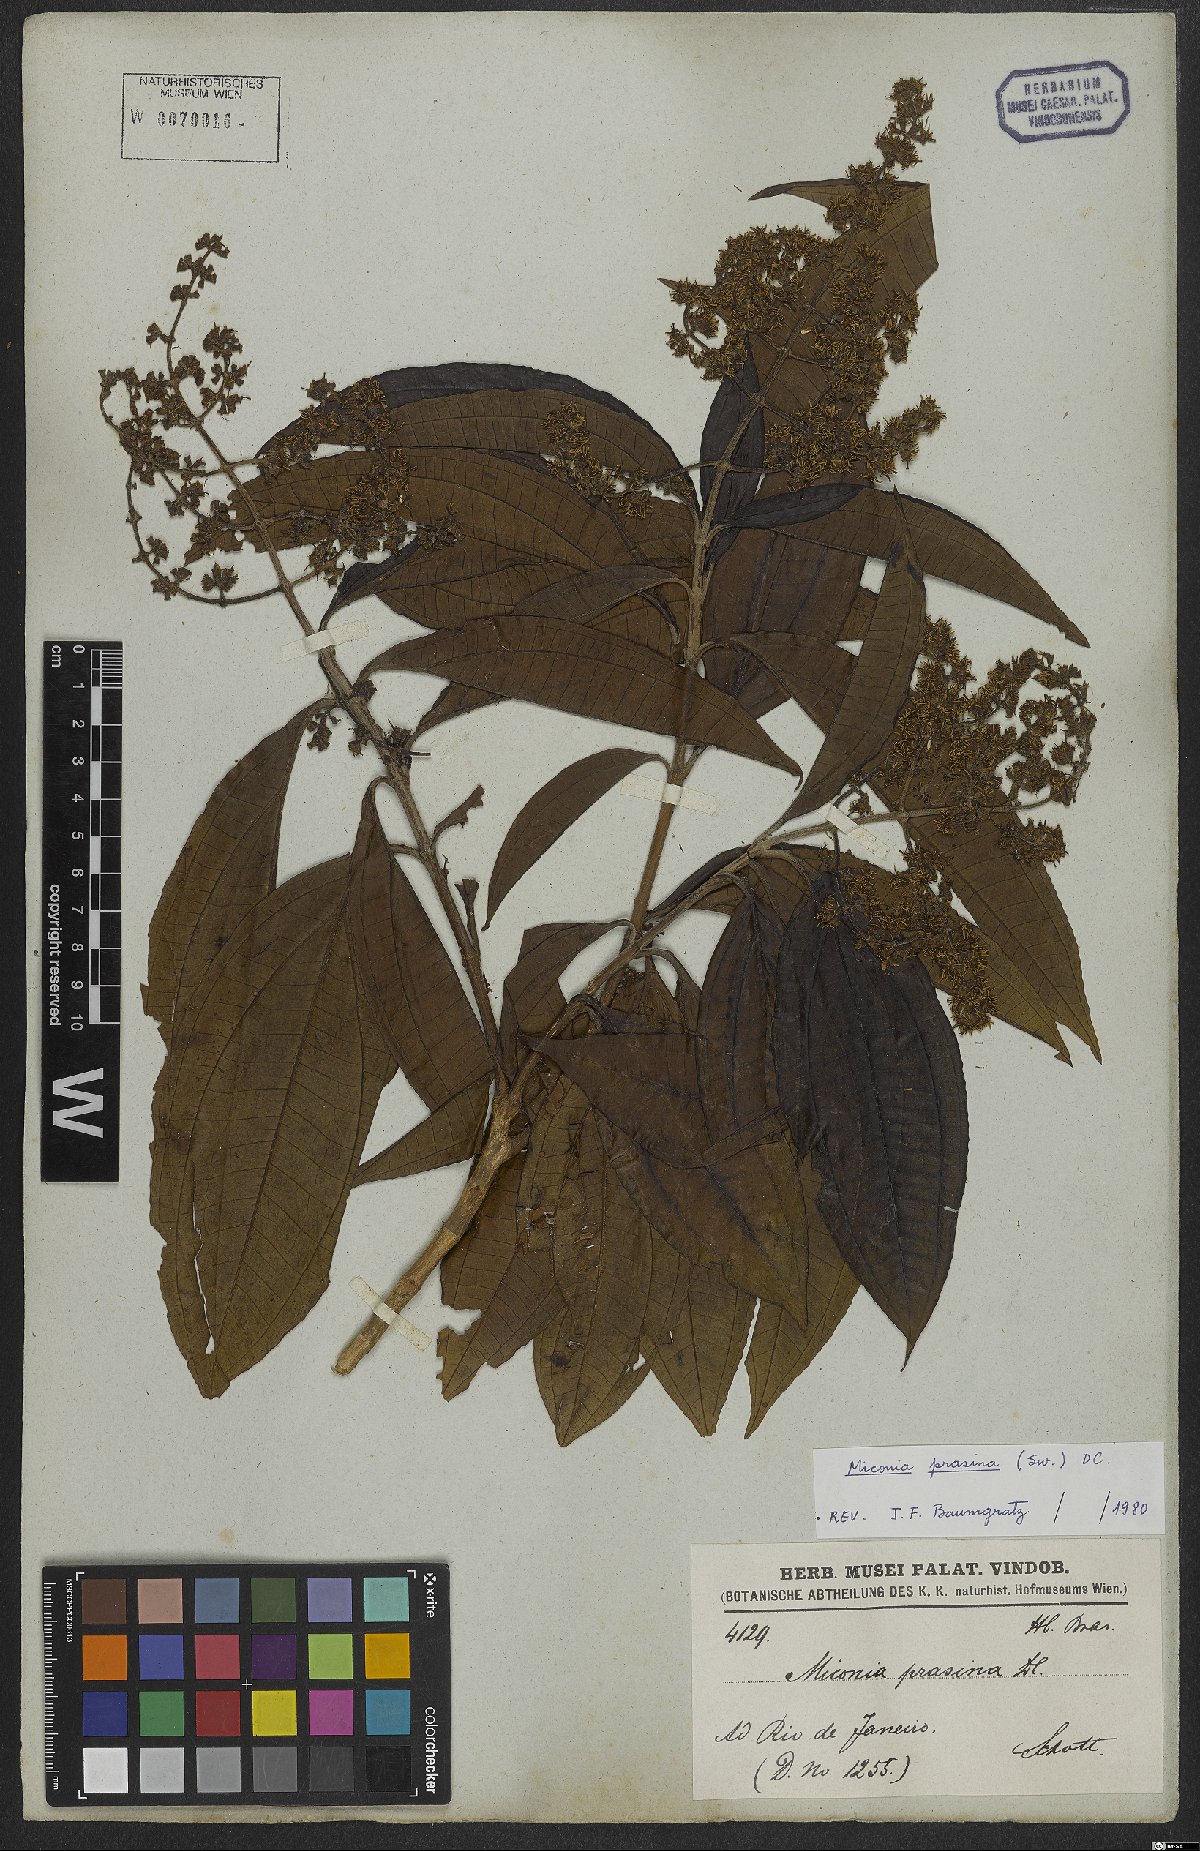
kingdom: Plantae
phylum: Tracheophyta
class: Magnoliopsida
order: Myrtales
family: Melastomataceae
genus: Miconia
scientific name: Miconia prasina
